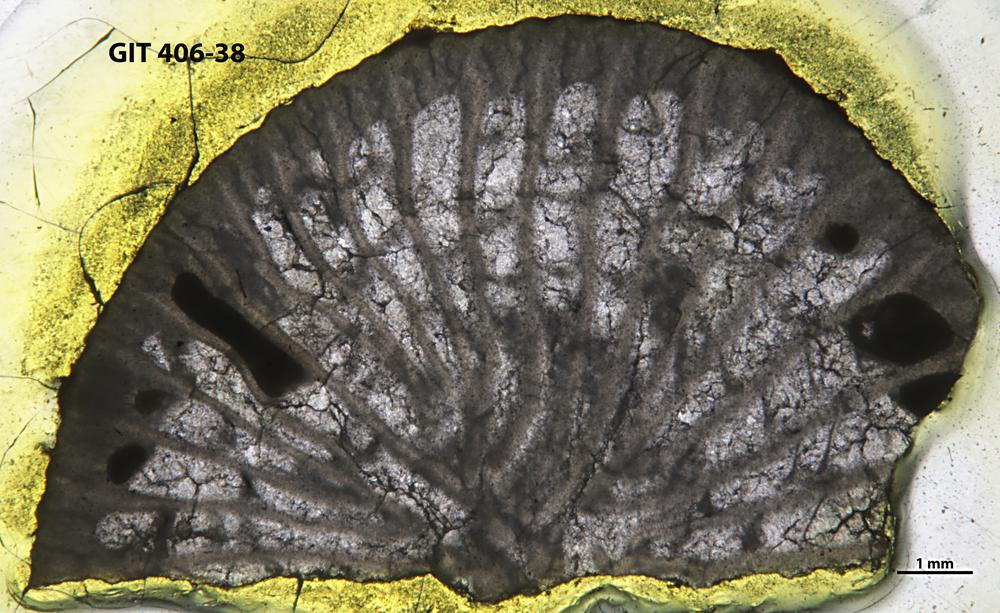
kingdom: Animalia
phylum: Cnidaria
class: Anthozoa
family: Streptelasmatidae
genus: Brachyelasma
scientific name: Brachyelasma
